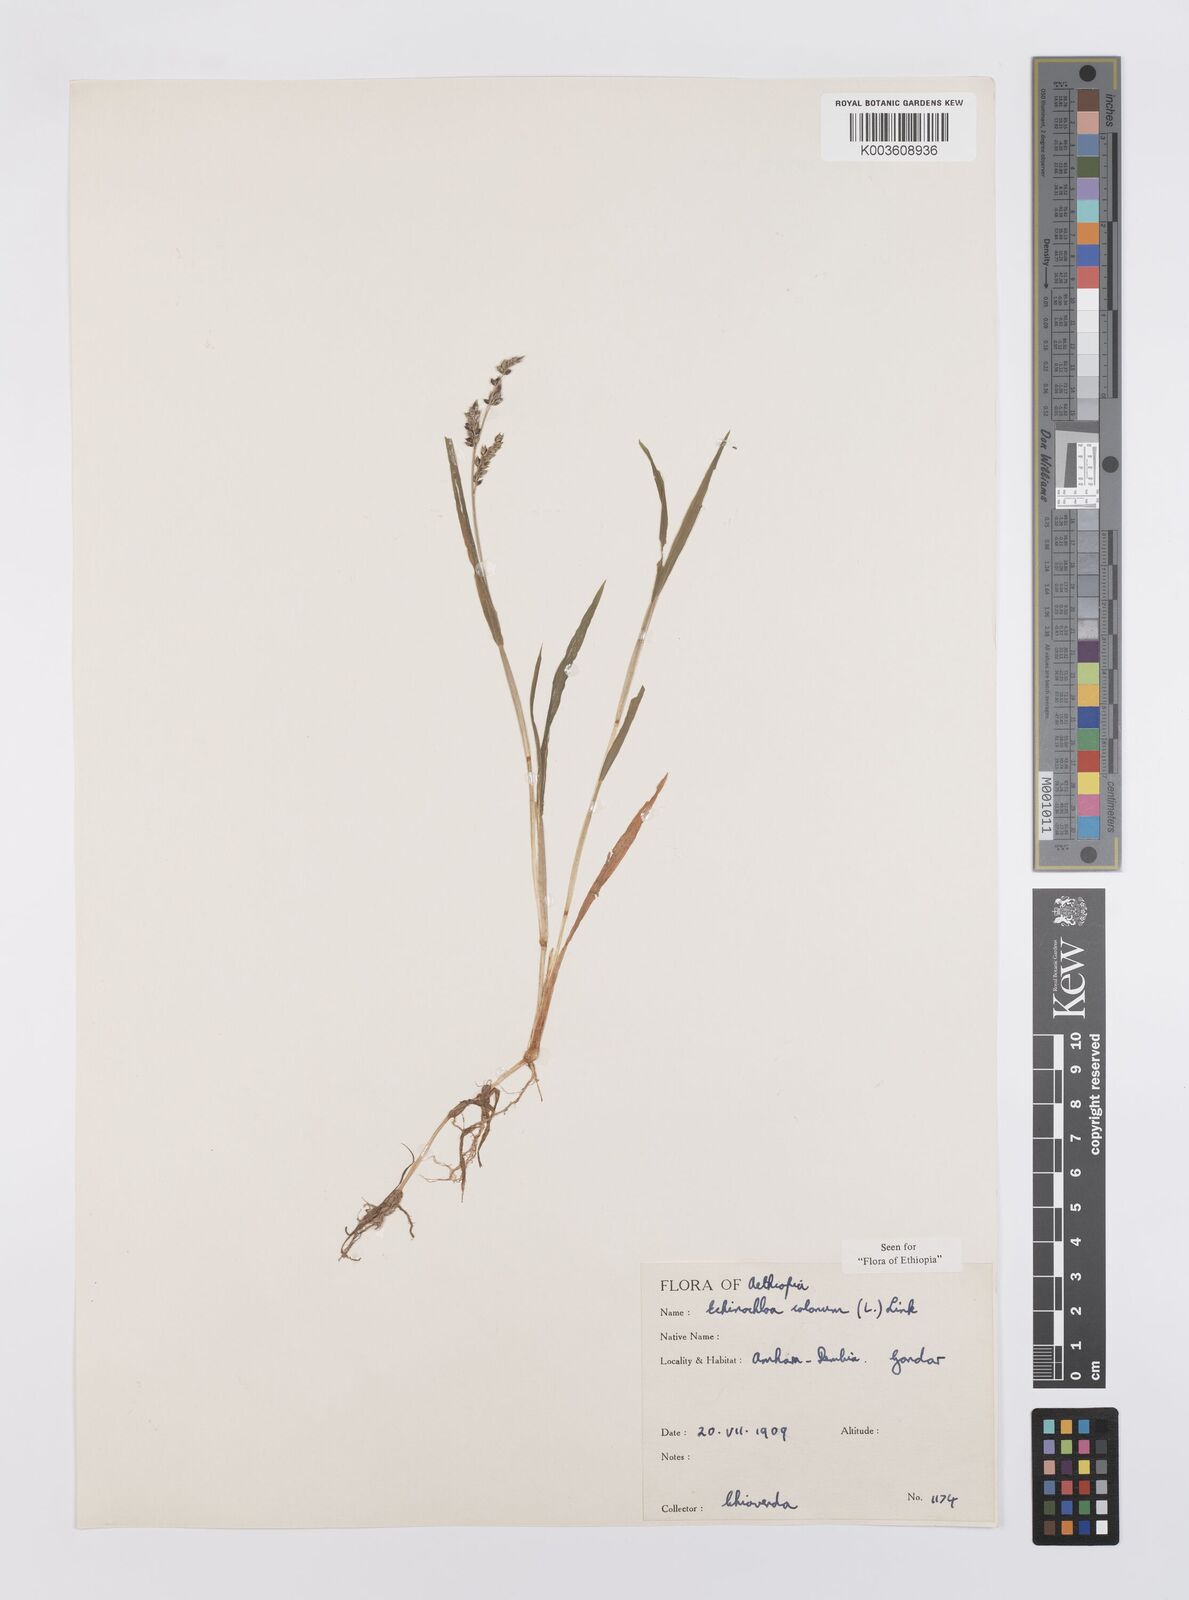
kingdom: Plantae
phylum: Tracheophyta
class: Liliopsida
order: Poales
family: Poaceae
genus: Echinochloa
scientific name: Echinochloa colonum
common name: Jungle rice
